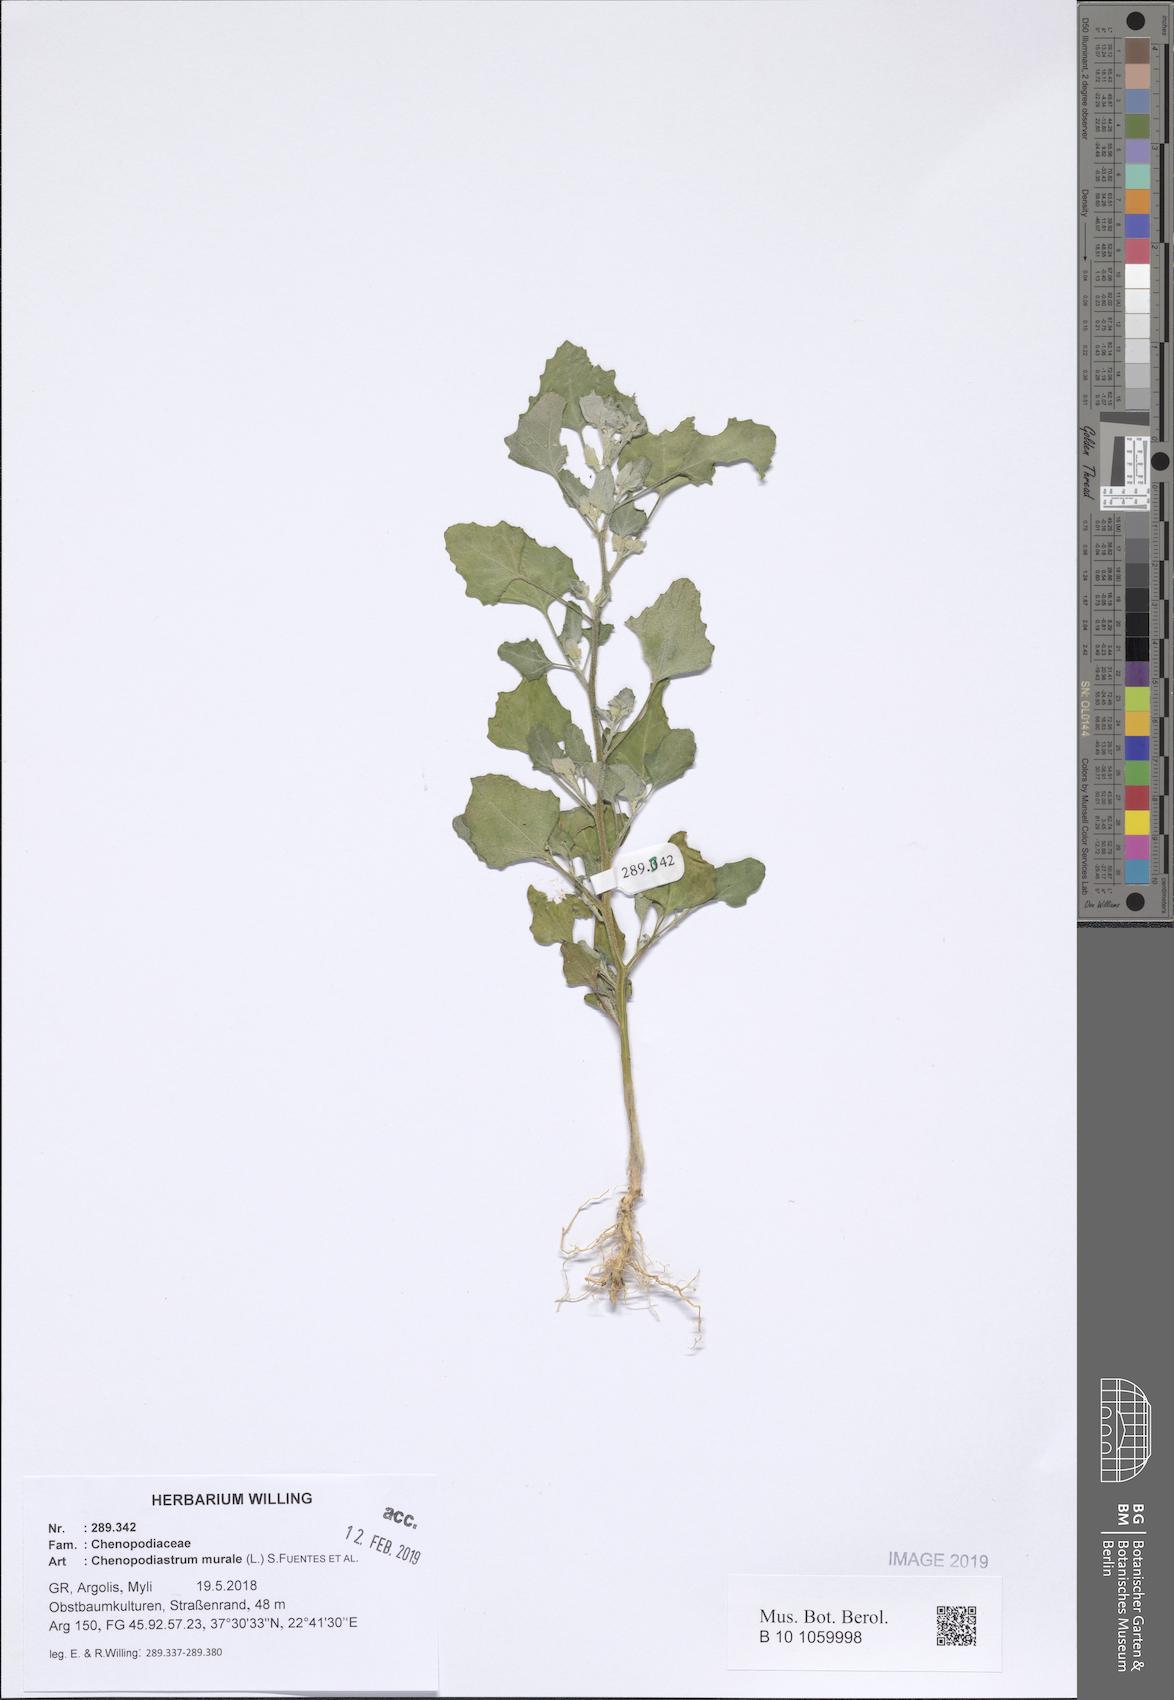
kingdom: Plantae
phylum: Tracheophyta
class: Magnoliopsida
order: Caryophyllales
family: Amaranthaceae
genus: Chenopodiastrum
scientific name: Chenopodiastrum murale
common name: Sowbane
